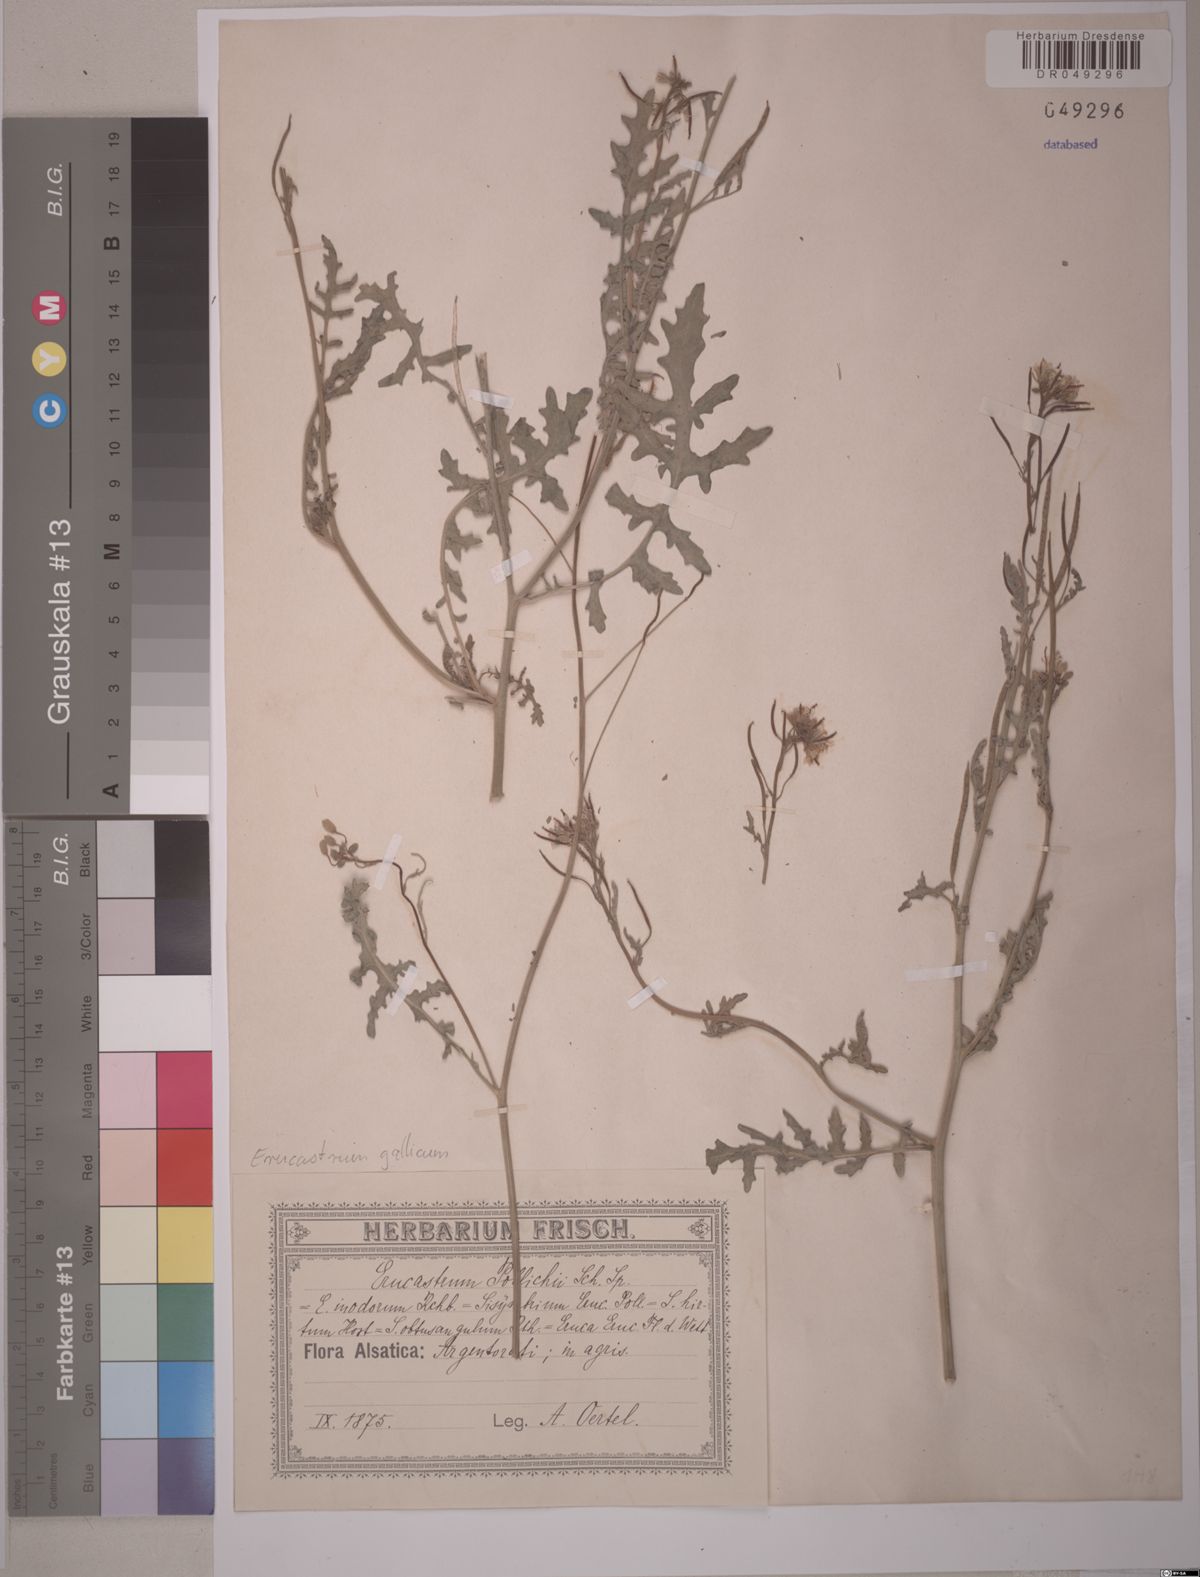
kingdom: Plantae
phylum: Tracheophyta
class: Magnoliopsida
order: Brassicales
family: Brassicaceae
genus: Erucastrum
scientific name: Erucastrum gallicum
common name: Hairy rocket
